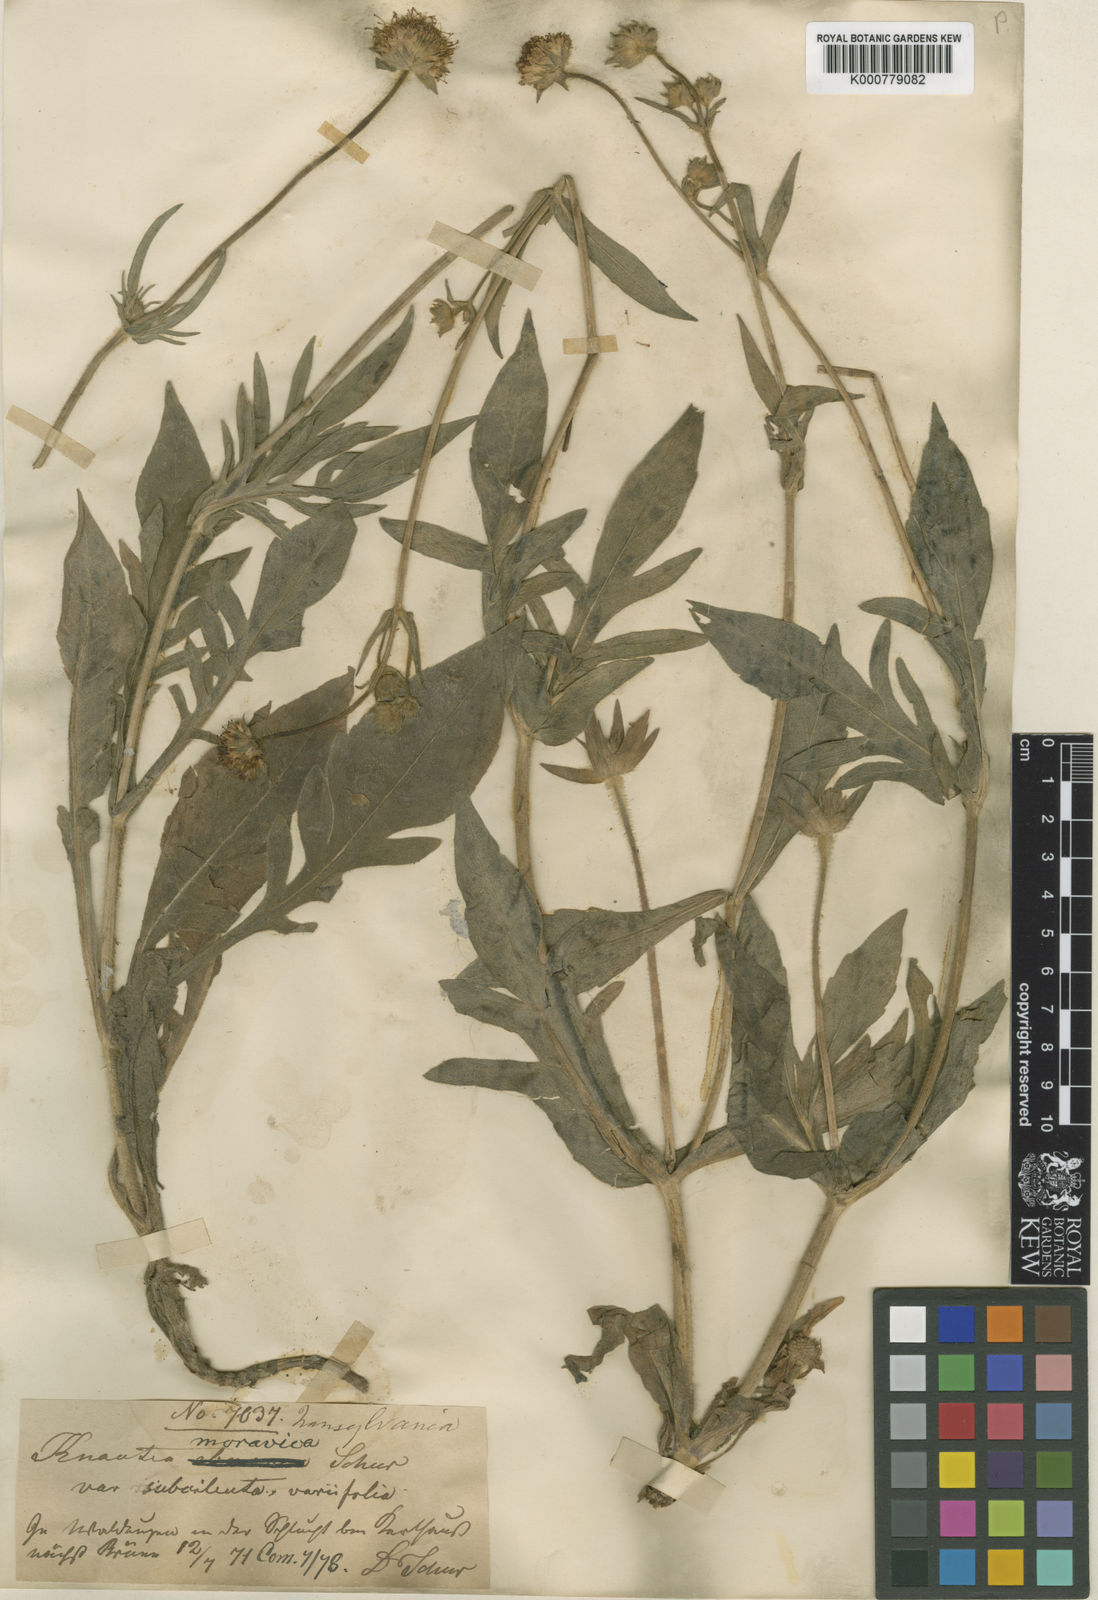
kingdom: Plantae
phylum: Tracheophyta
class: Magnoliopsida
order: Dipsacales
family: Caprifoliaceae
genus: Knautia
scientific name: Knautia dinarica
